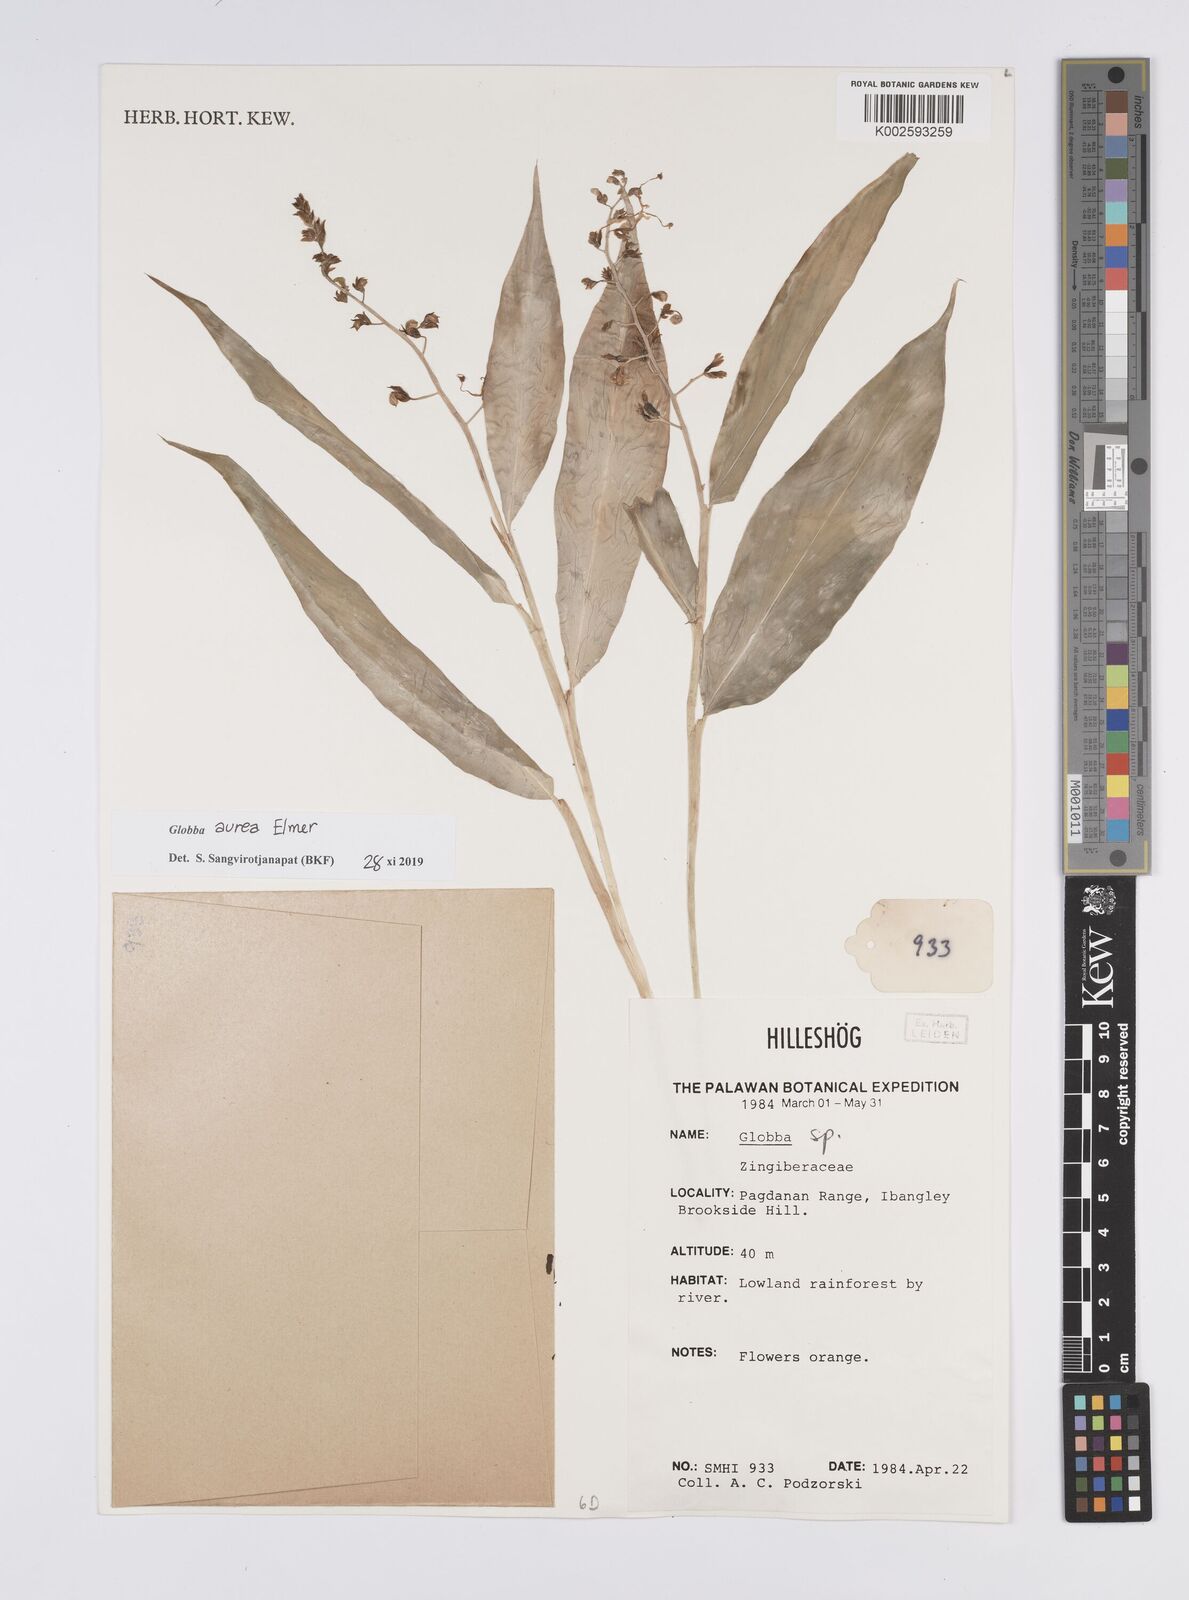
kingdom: Plantae
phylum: Tracheophyta
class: Liliopsida
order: Zingiberales
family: Zingiberaceae
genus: Globba
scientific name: Globba aurea
